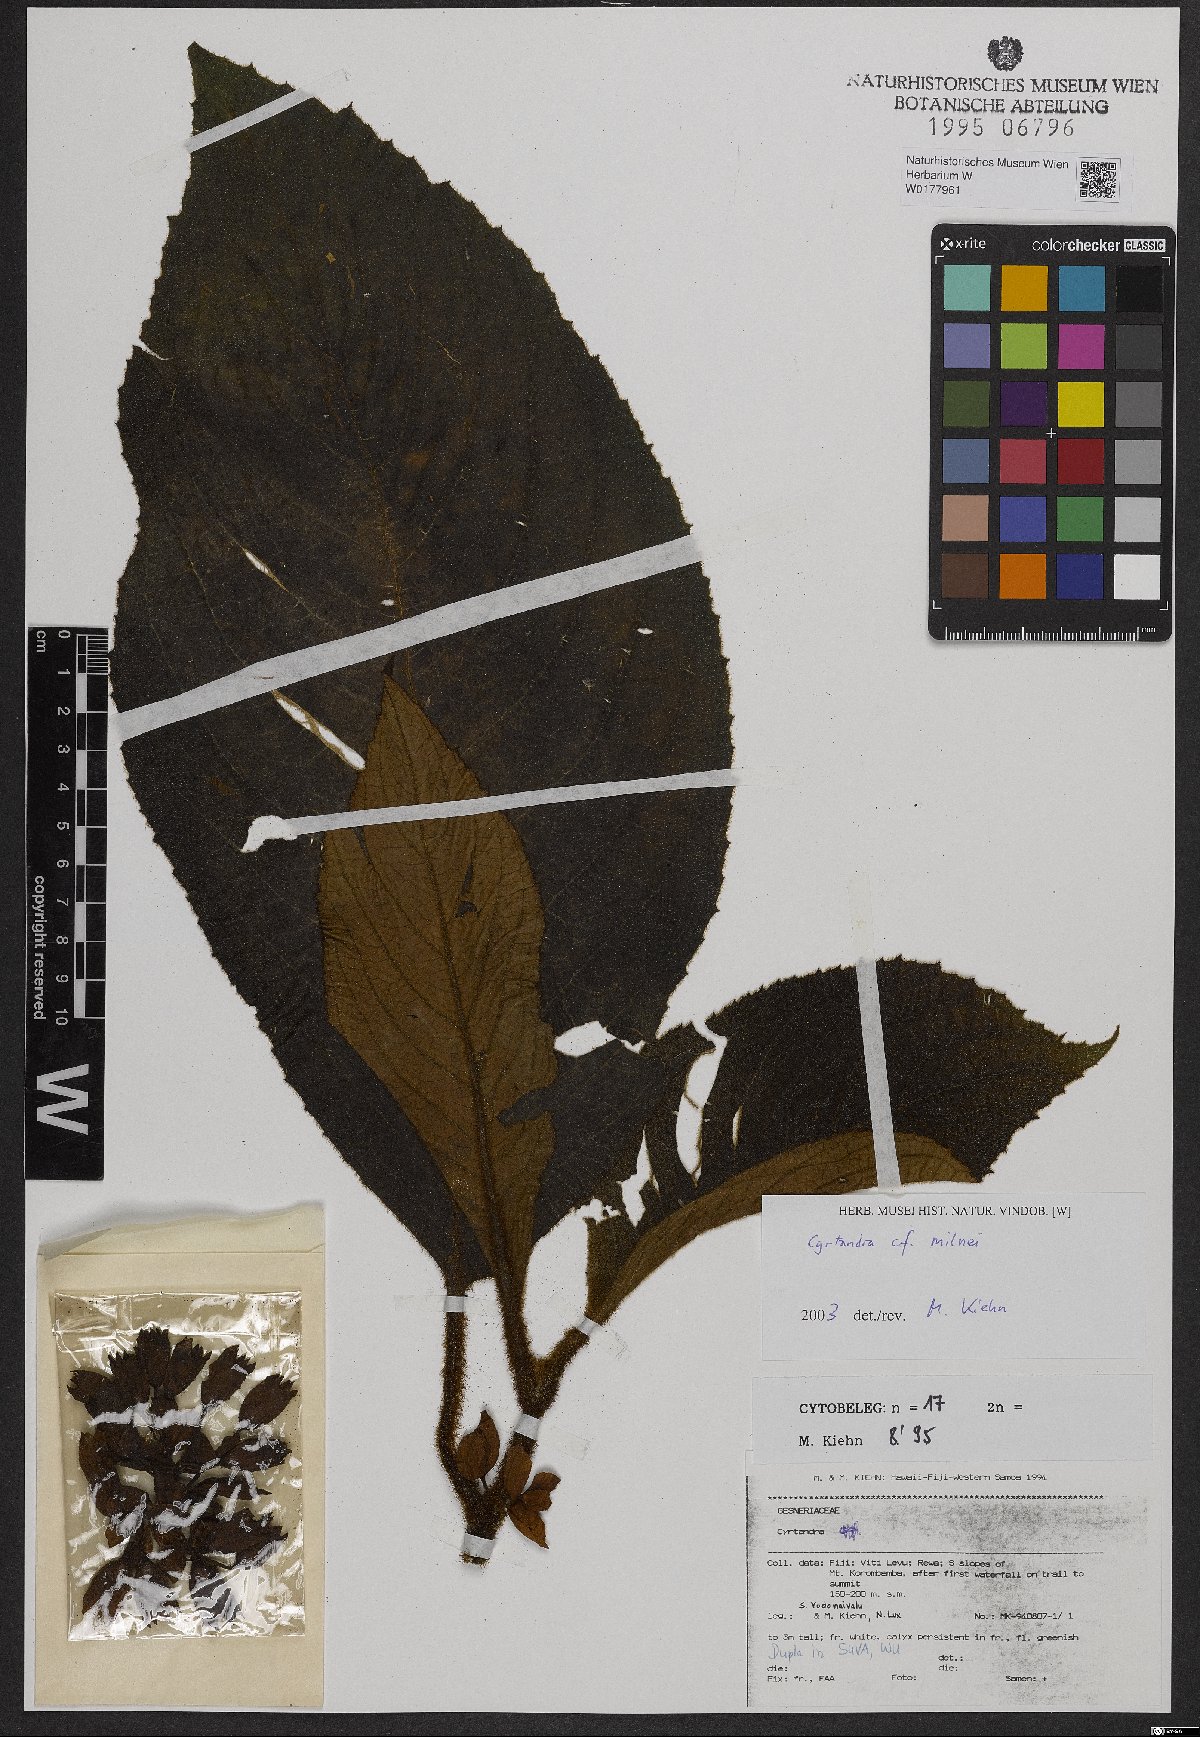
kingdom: Plantae
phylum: Tracheophyta
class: Magnoliopsida
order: Lamiales
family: Gesneriaceae
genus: Cyrtandra
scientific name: Cyrtandra
